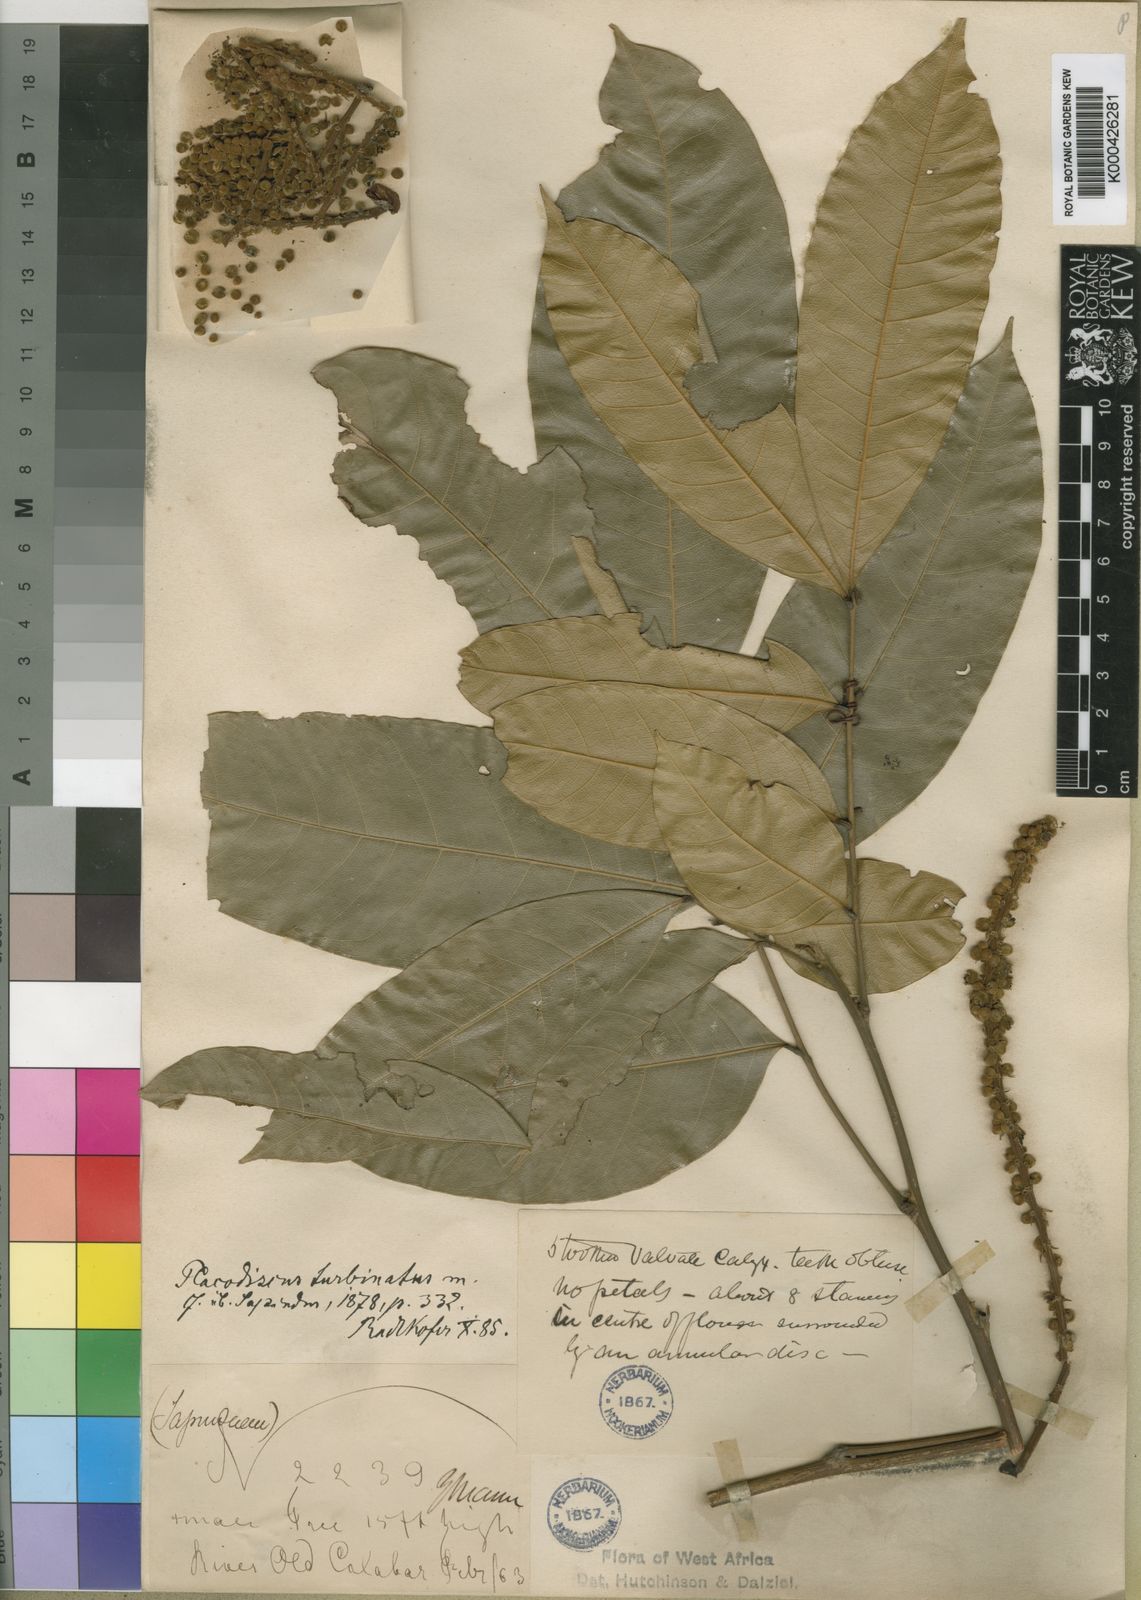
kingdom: Plantae
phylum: Tracheophyta
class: Magnoliopsida
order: Sapindales
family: Sapindaceae
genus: Placodiscus
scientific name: Placodiscus turbinatus
